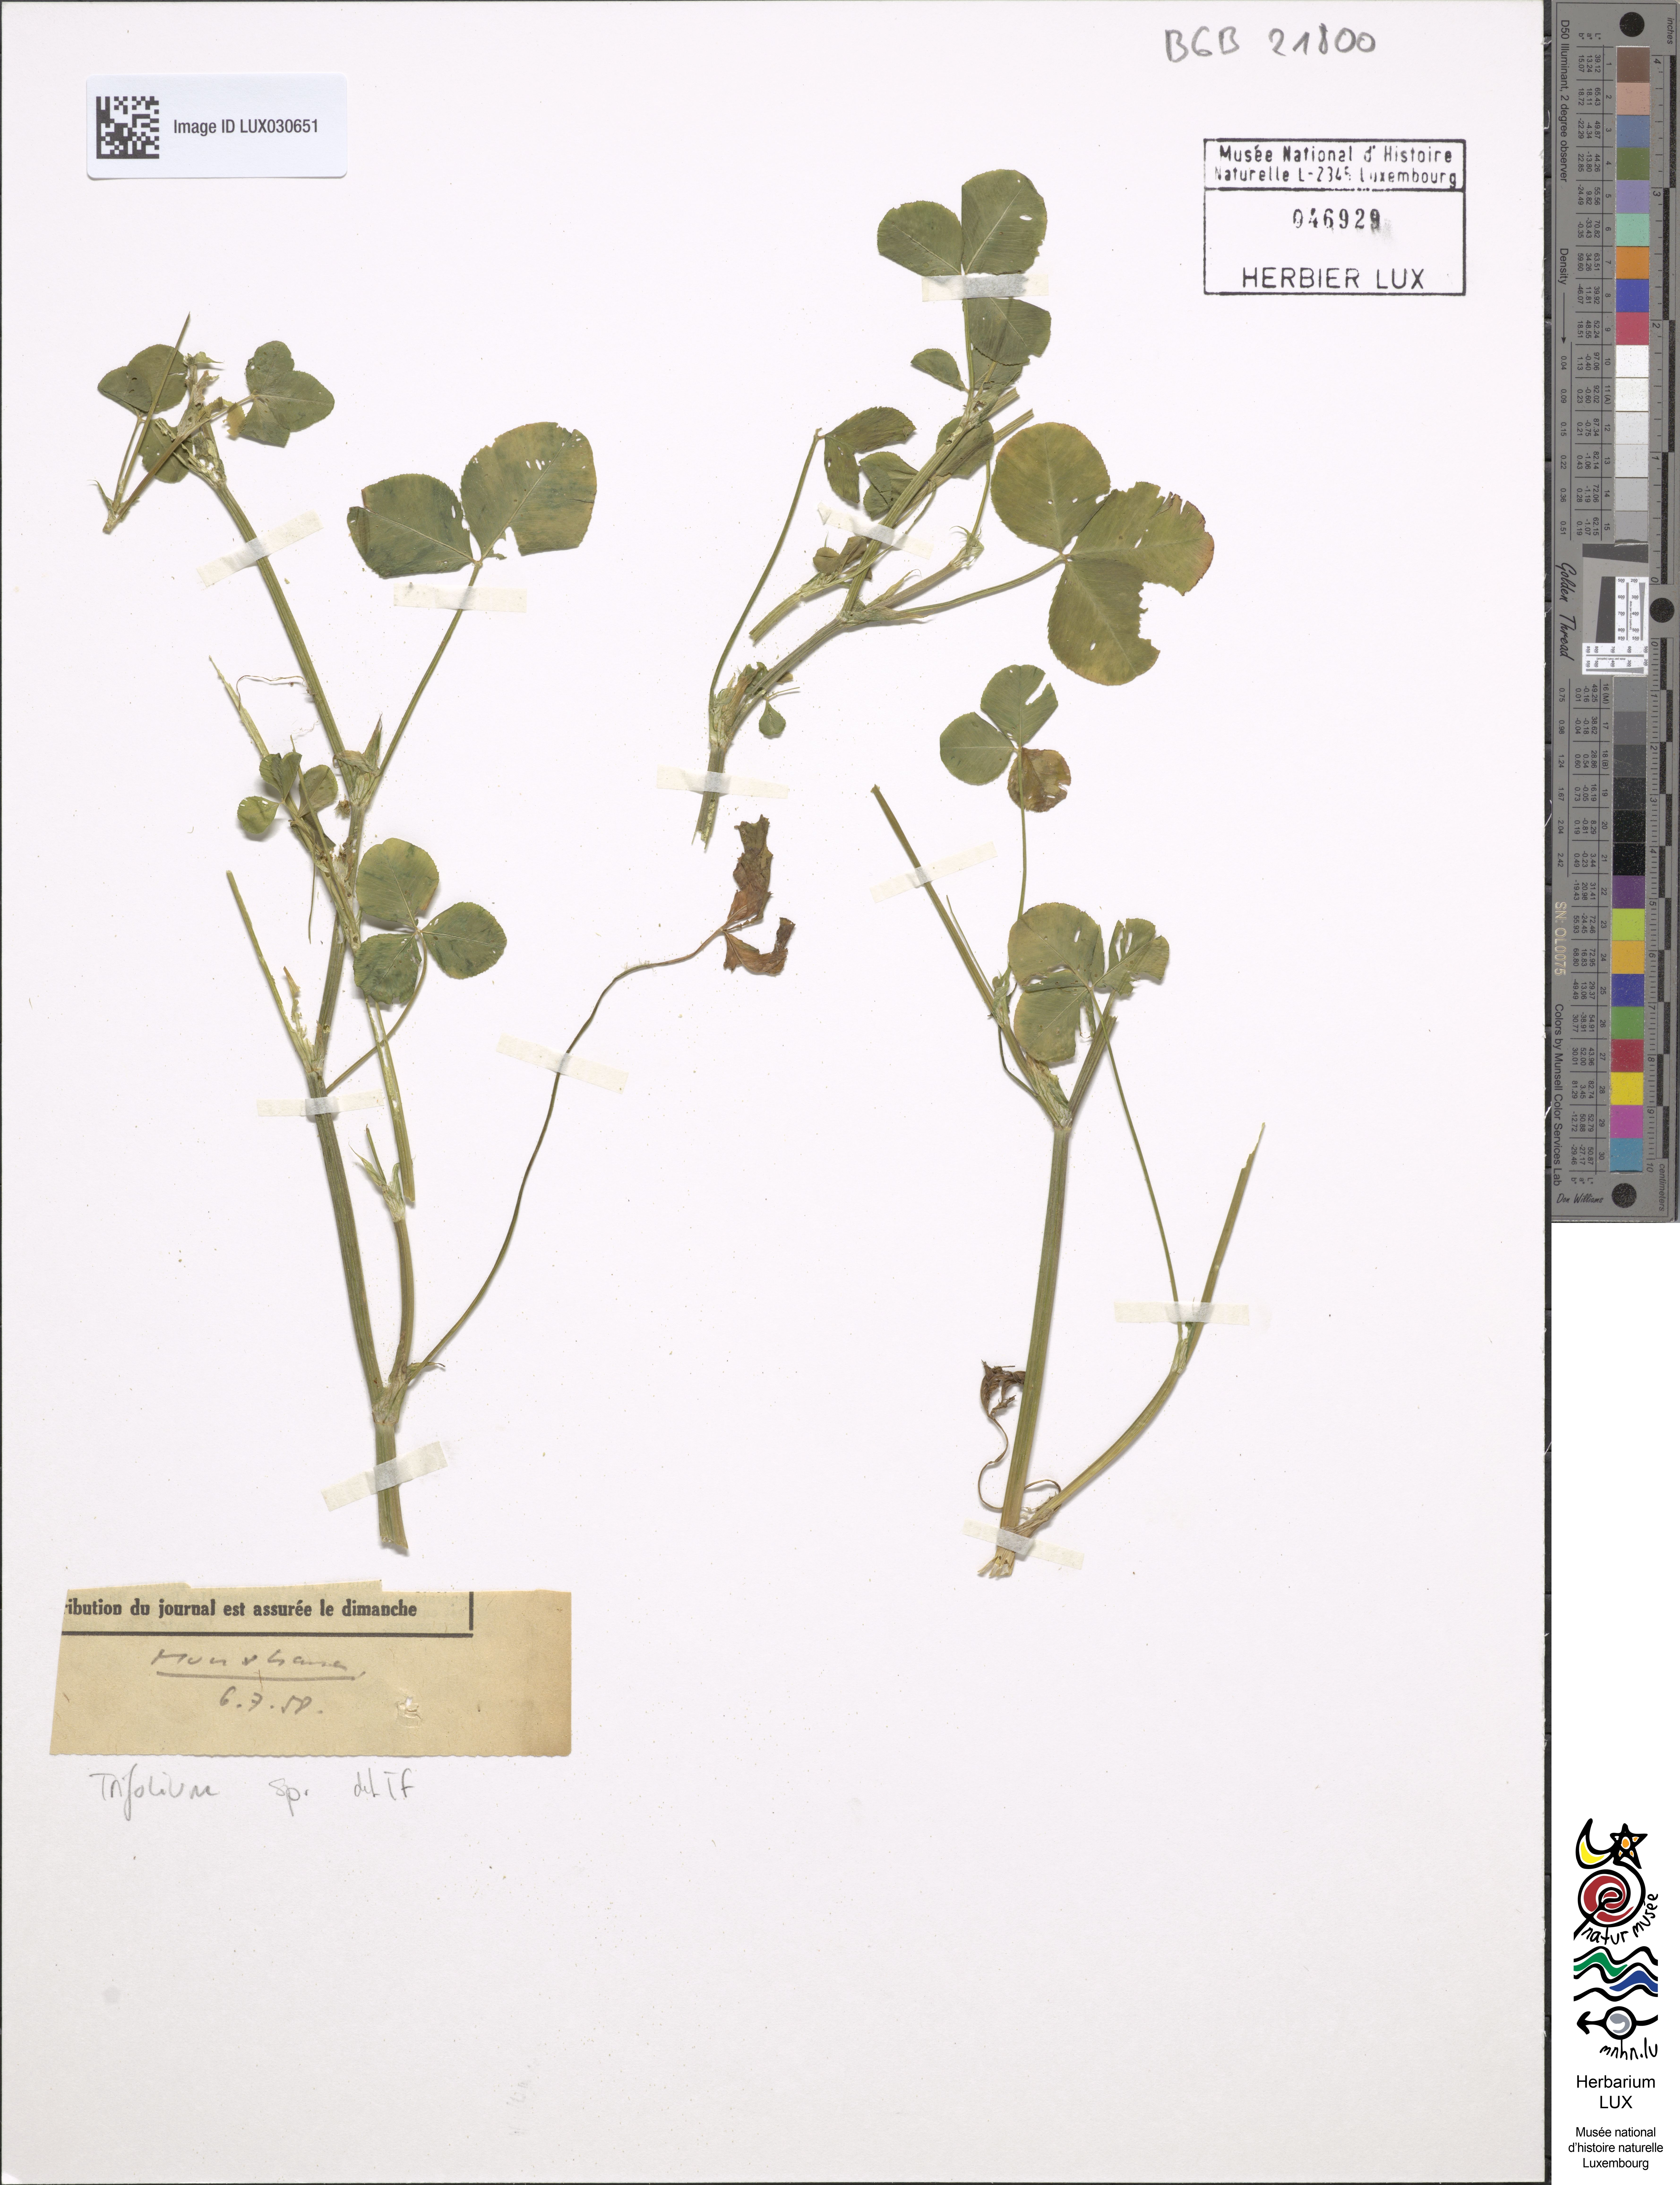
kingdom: Plantae
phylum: Tracheophyta
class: Magnoliopsida
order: Fabales
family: Fabaceae
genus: Trifolium
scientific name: Trifolium
